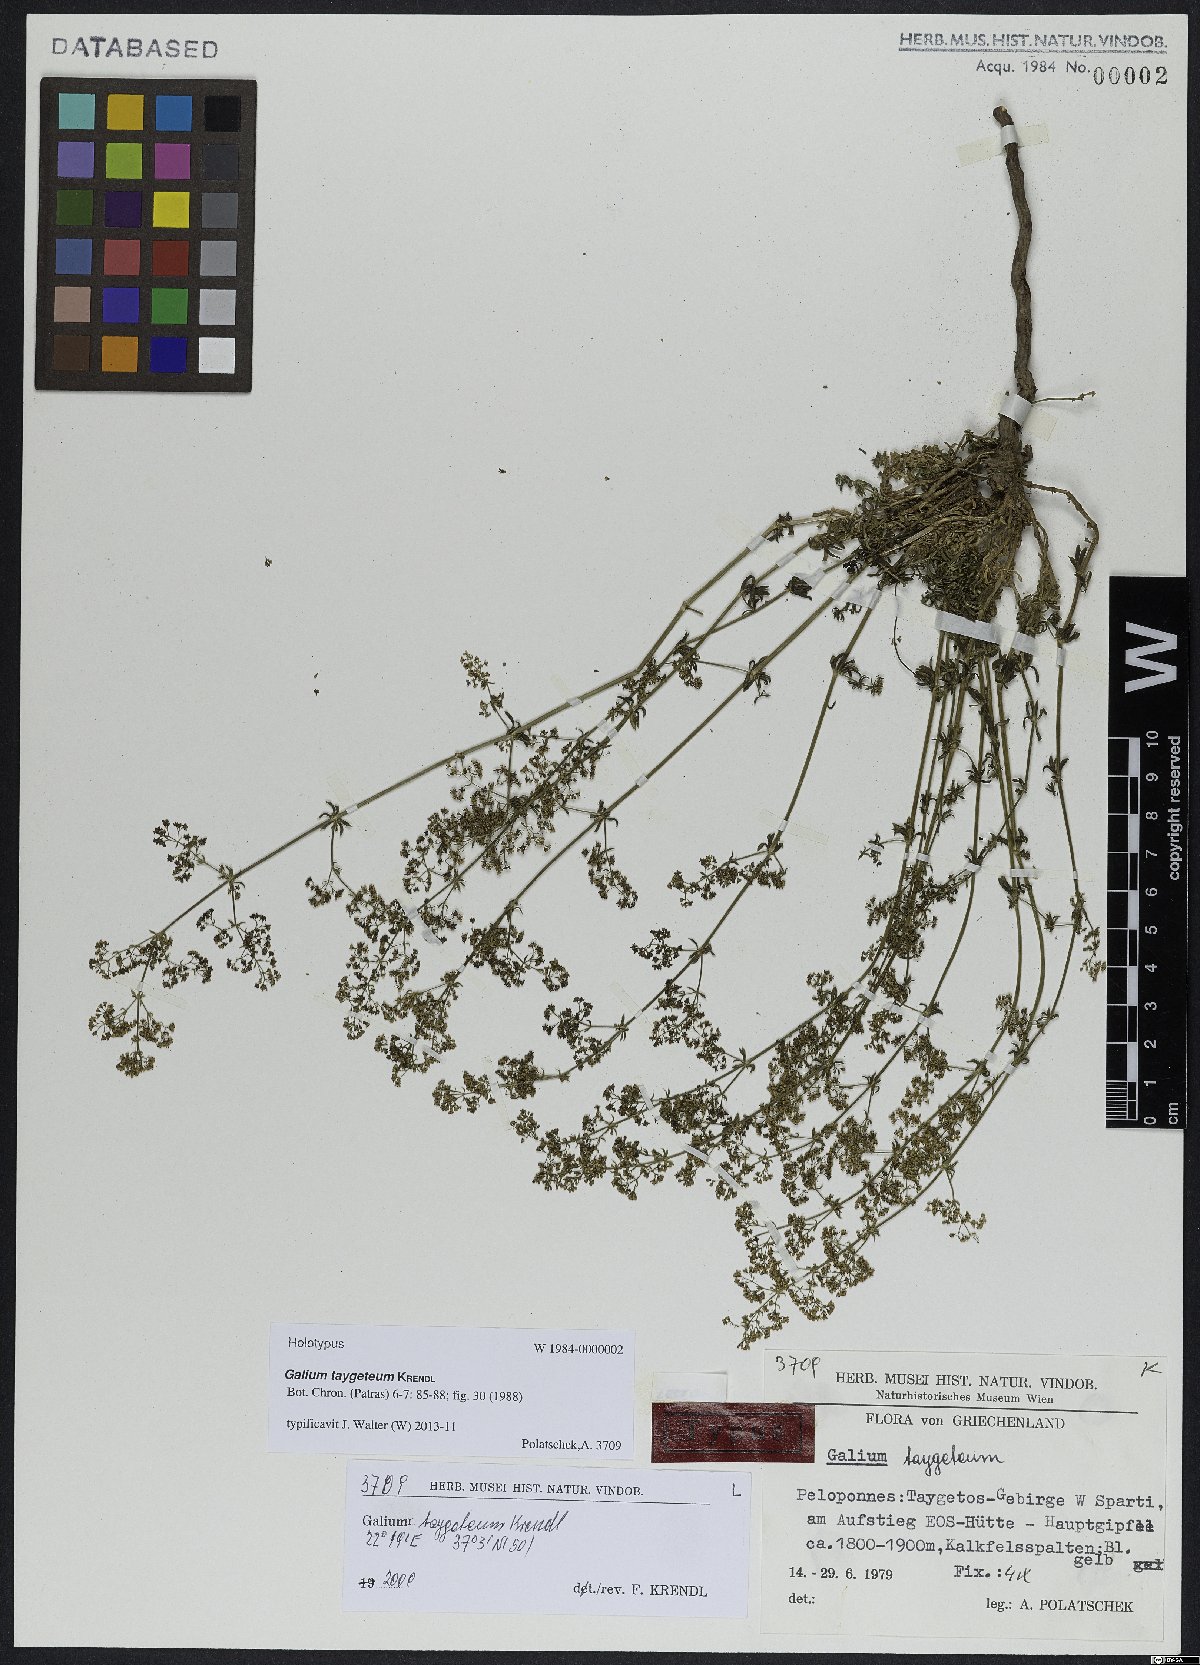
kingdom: Plantae
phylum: Tracheophyta
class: Magnoliopsida
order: Gentianales
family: Rubiaceae
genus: Galium
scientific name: Galium taygeteum
